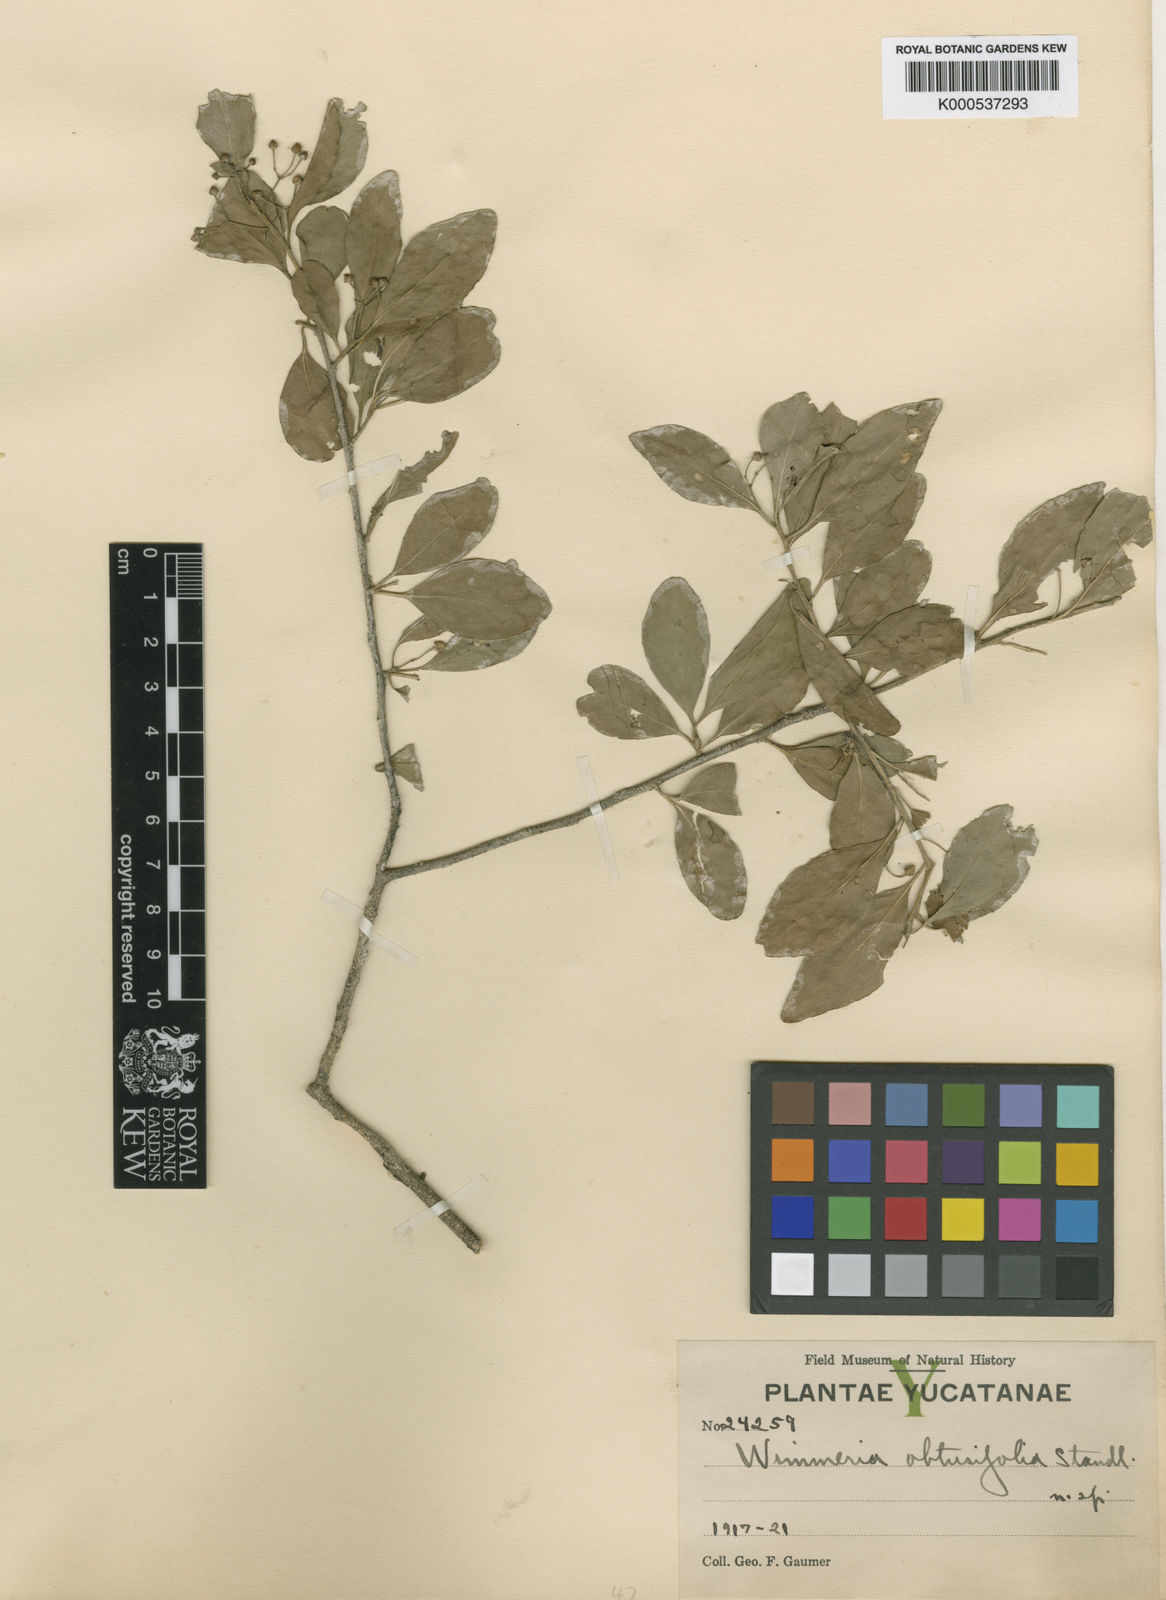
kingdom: Plantae
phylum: Tracheophyta
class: Magnoliopsida
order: Celastrales
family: Celastraceae
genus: Wimmeria
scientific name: Wimmeria obtusifolia
